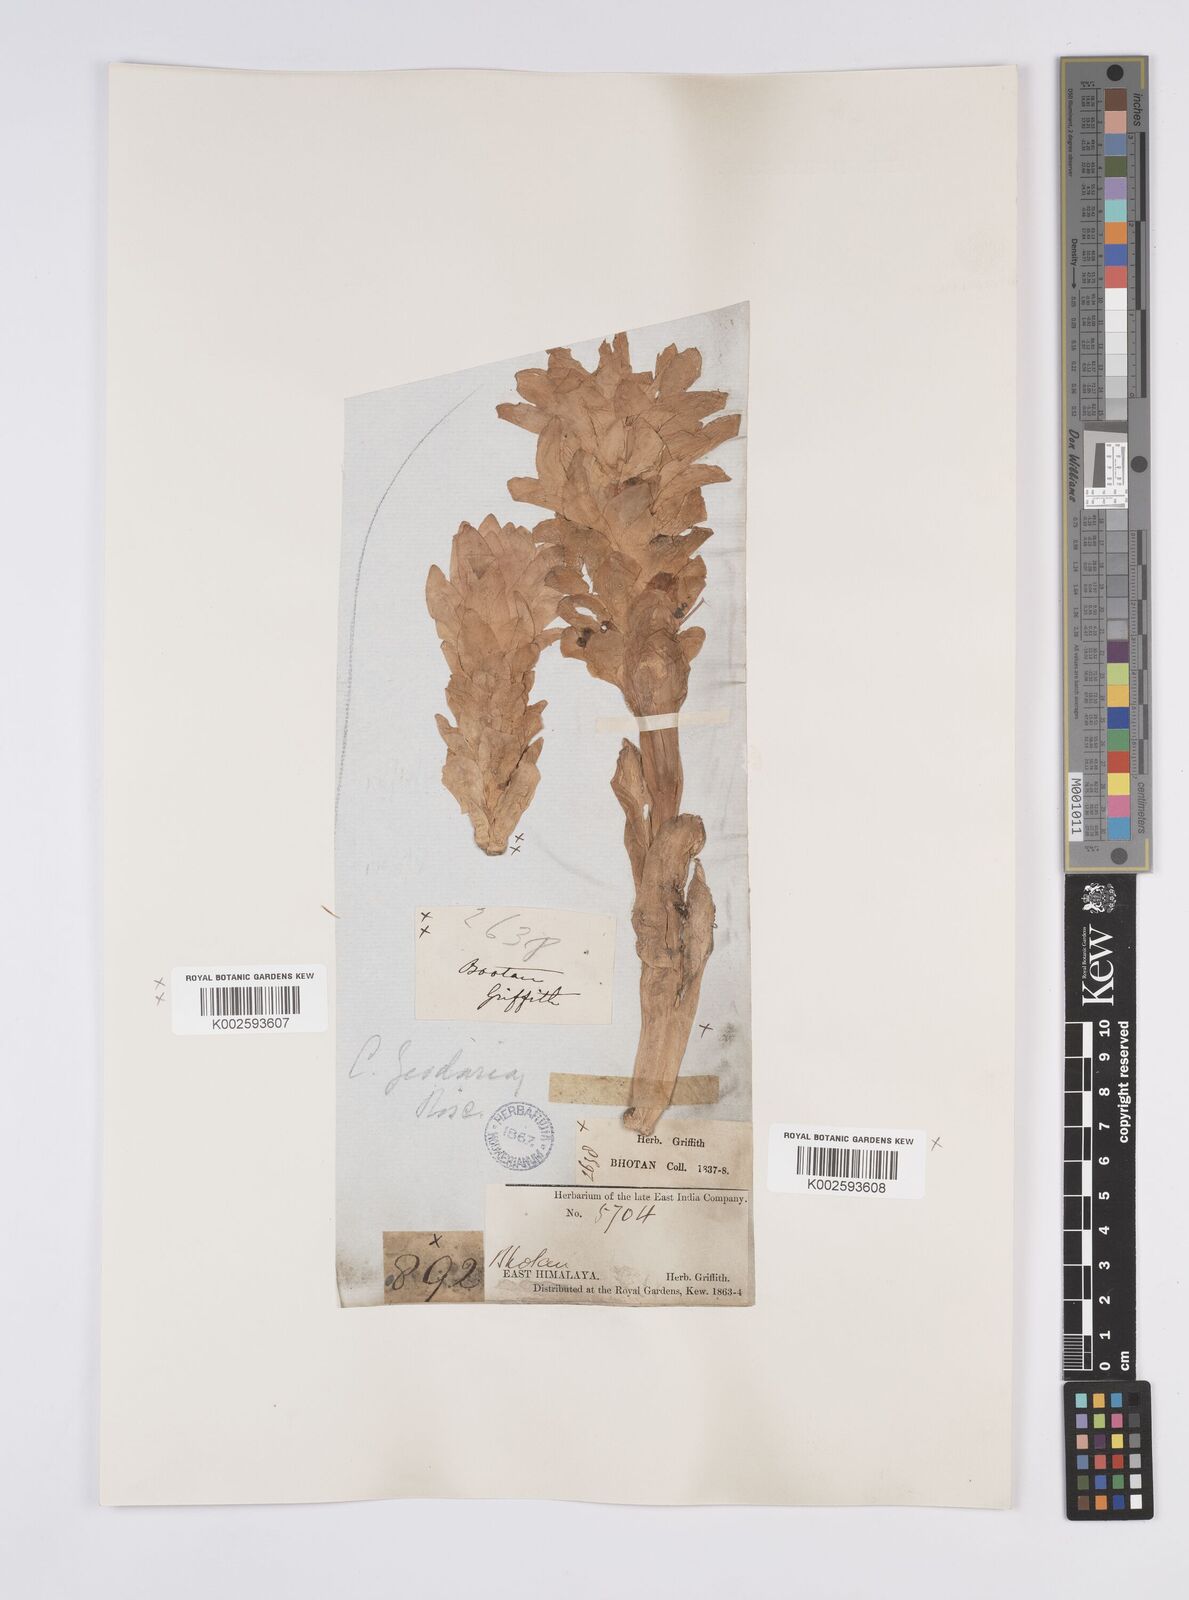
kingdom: Plantae
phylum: Tracheophyta
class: Liliopsida
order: Zingiberales
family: Zingiberaceae
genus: Curcuma
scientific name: Curcuma aromatica
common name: Wild turmeric
